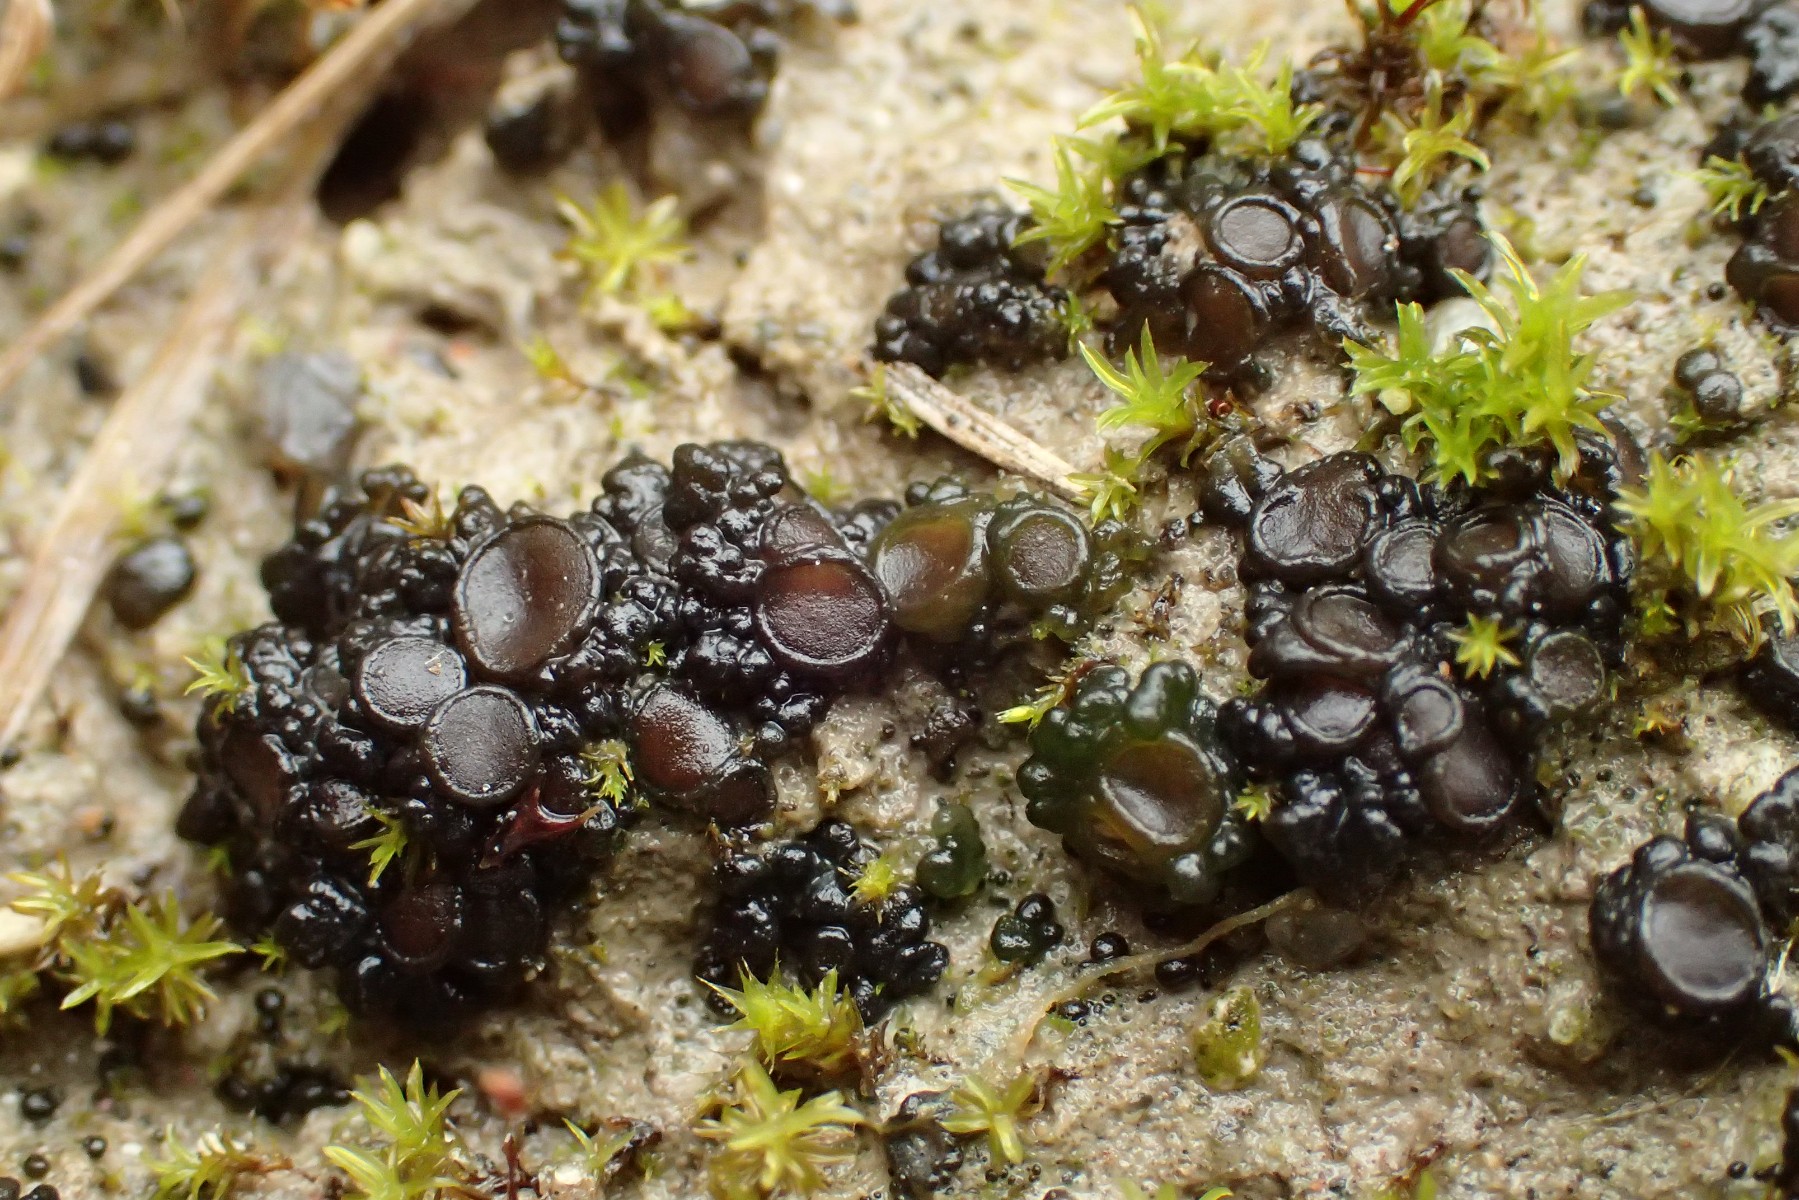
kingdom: Fungi
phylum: Ascomycota
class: Lecanoromycetes
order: Peltigerales
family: Collemataceae
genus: Enchylium
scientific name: Enchylium limosum
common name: dynd-bævrelav
